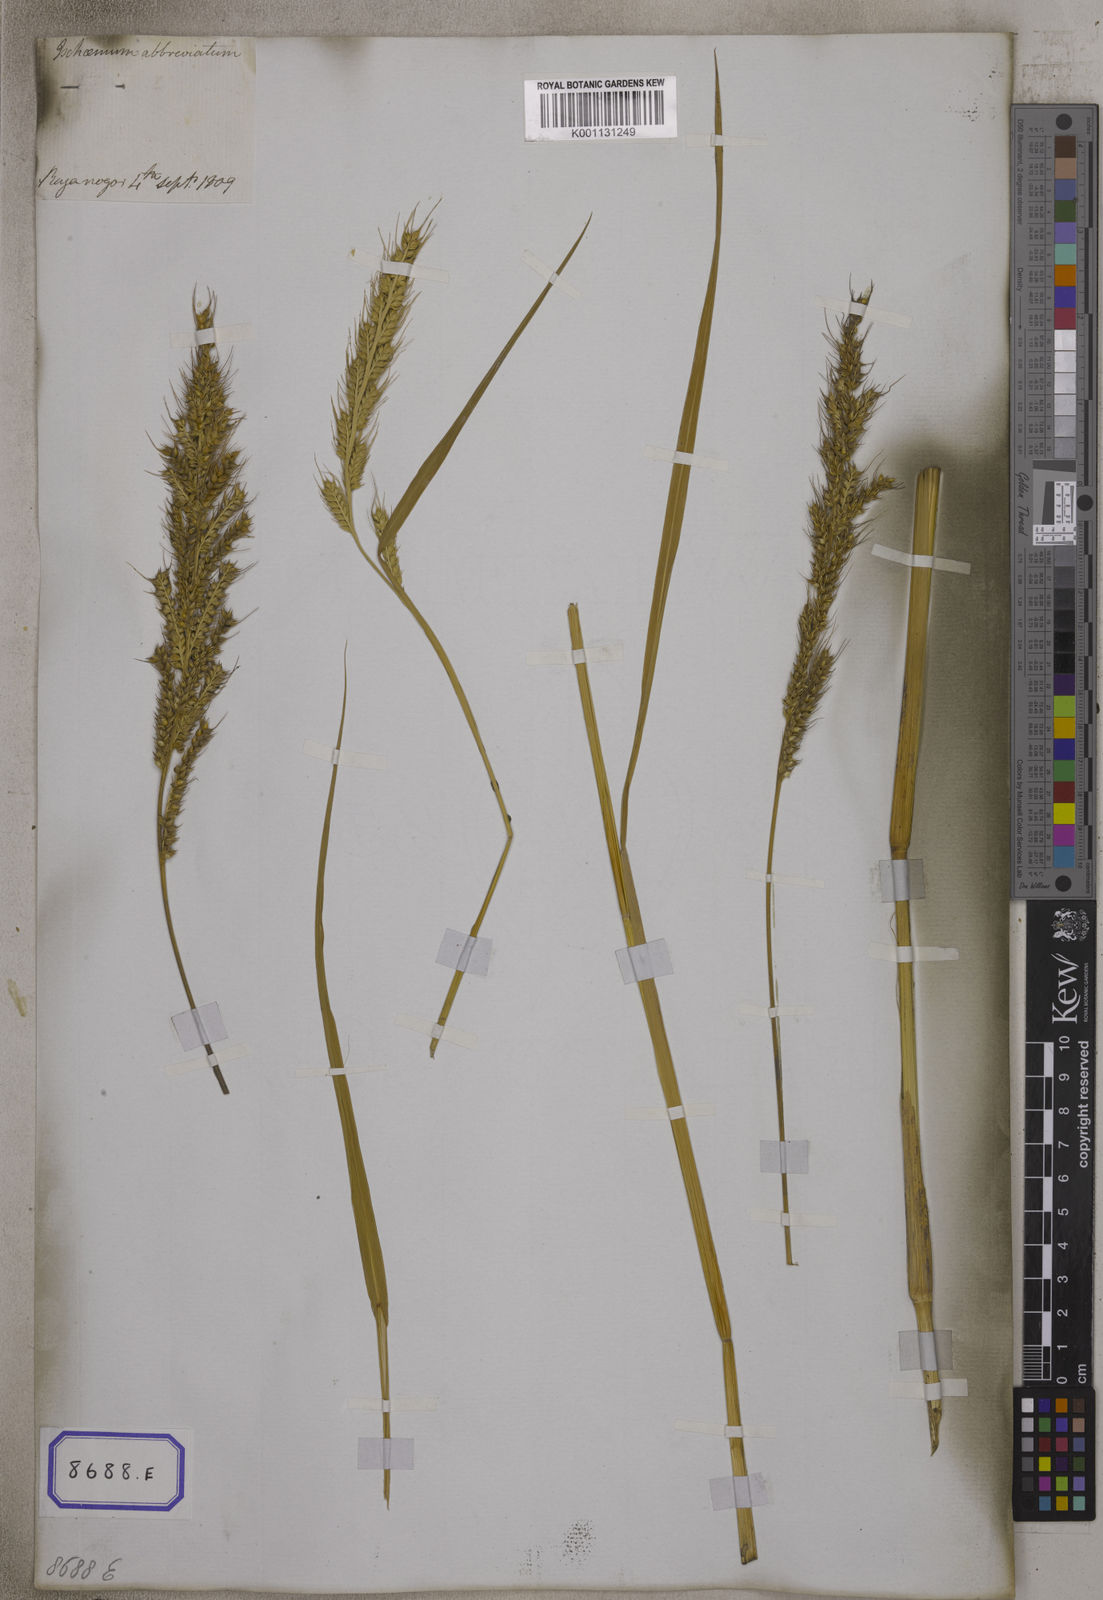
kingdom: Plantae
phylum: Tracheophyta
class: Liliopsida
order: Poales
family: Poaceae
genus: Echinochloa
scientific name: Echinochloa stagnina
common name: Burgu grass
